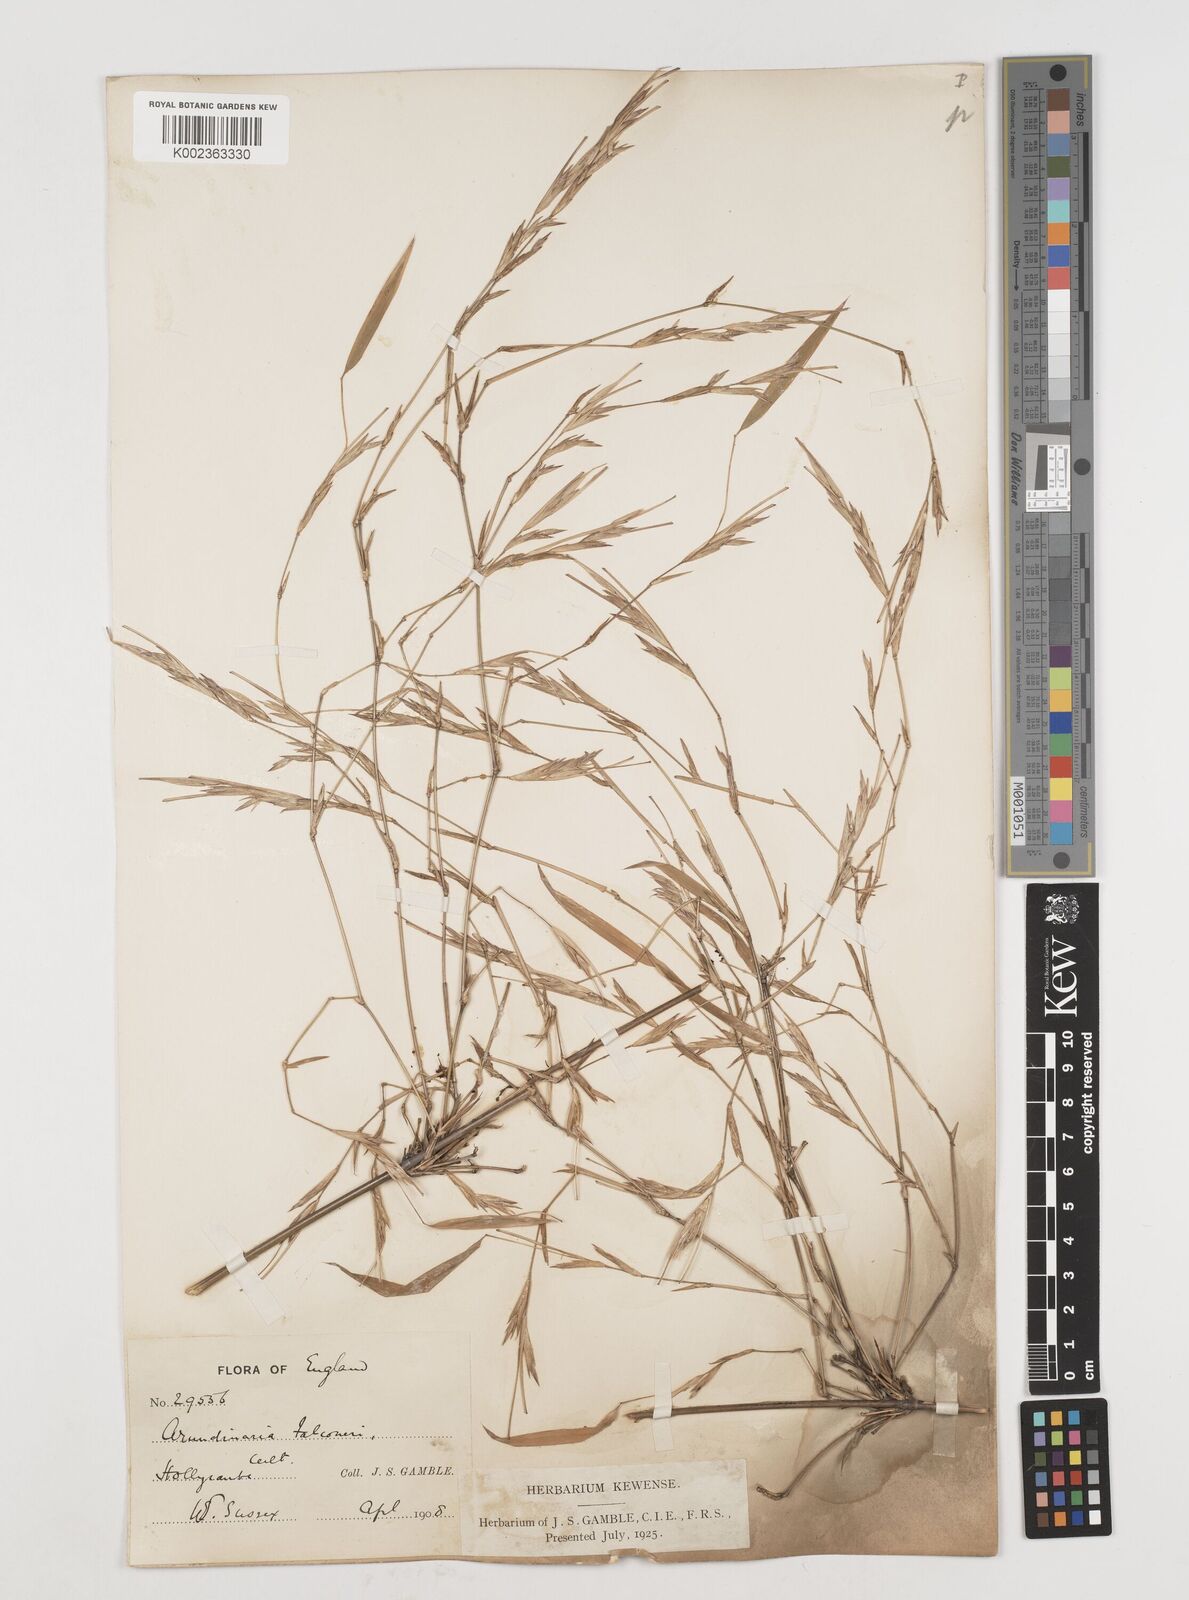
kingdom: Plantae
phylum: Tracheophyta
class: Liliopsida
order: Poales
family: Poaceae
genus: Himalayacalamus
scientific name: Himalayacalamus falconeri
